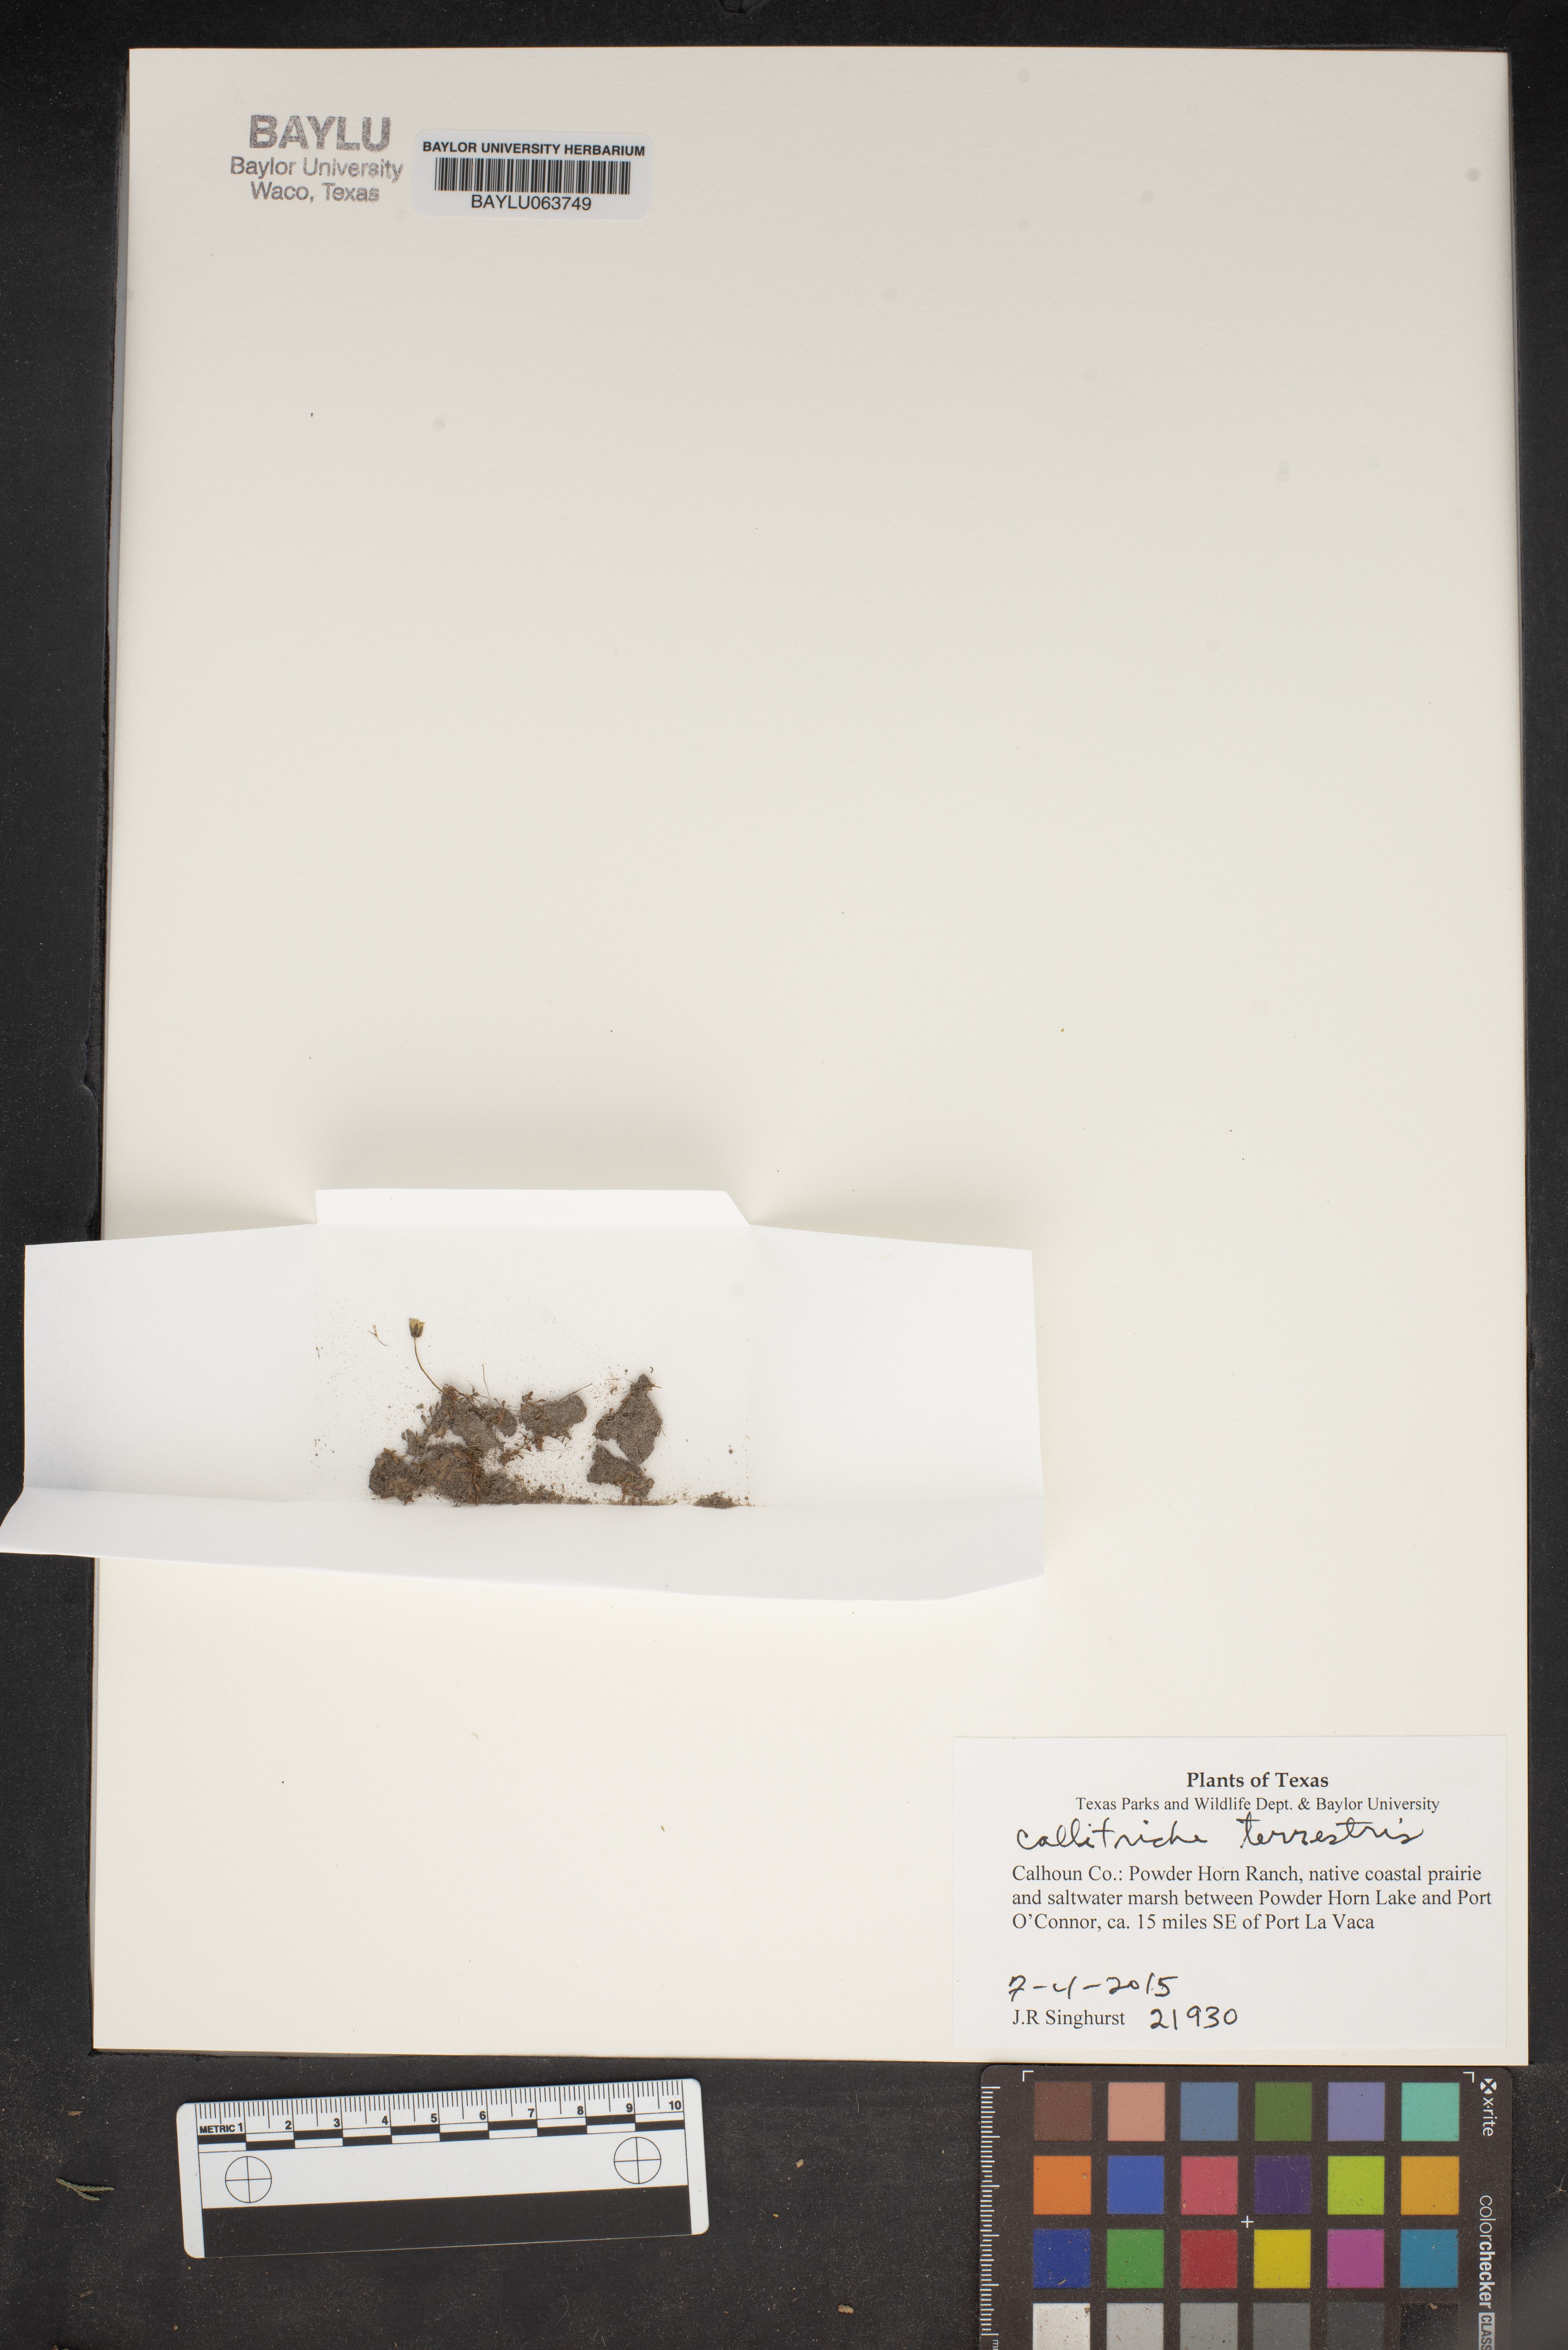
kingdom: Plantae
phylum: Tracheophyta
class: Magnoliopsida
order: Lamiales
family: Plantaginaceae
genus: Callitriche
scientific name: Callitriche terrestris
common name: Terrestrial water-starwort
